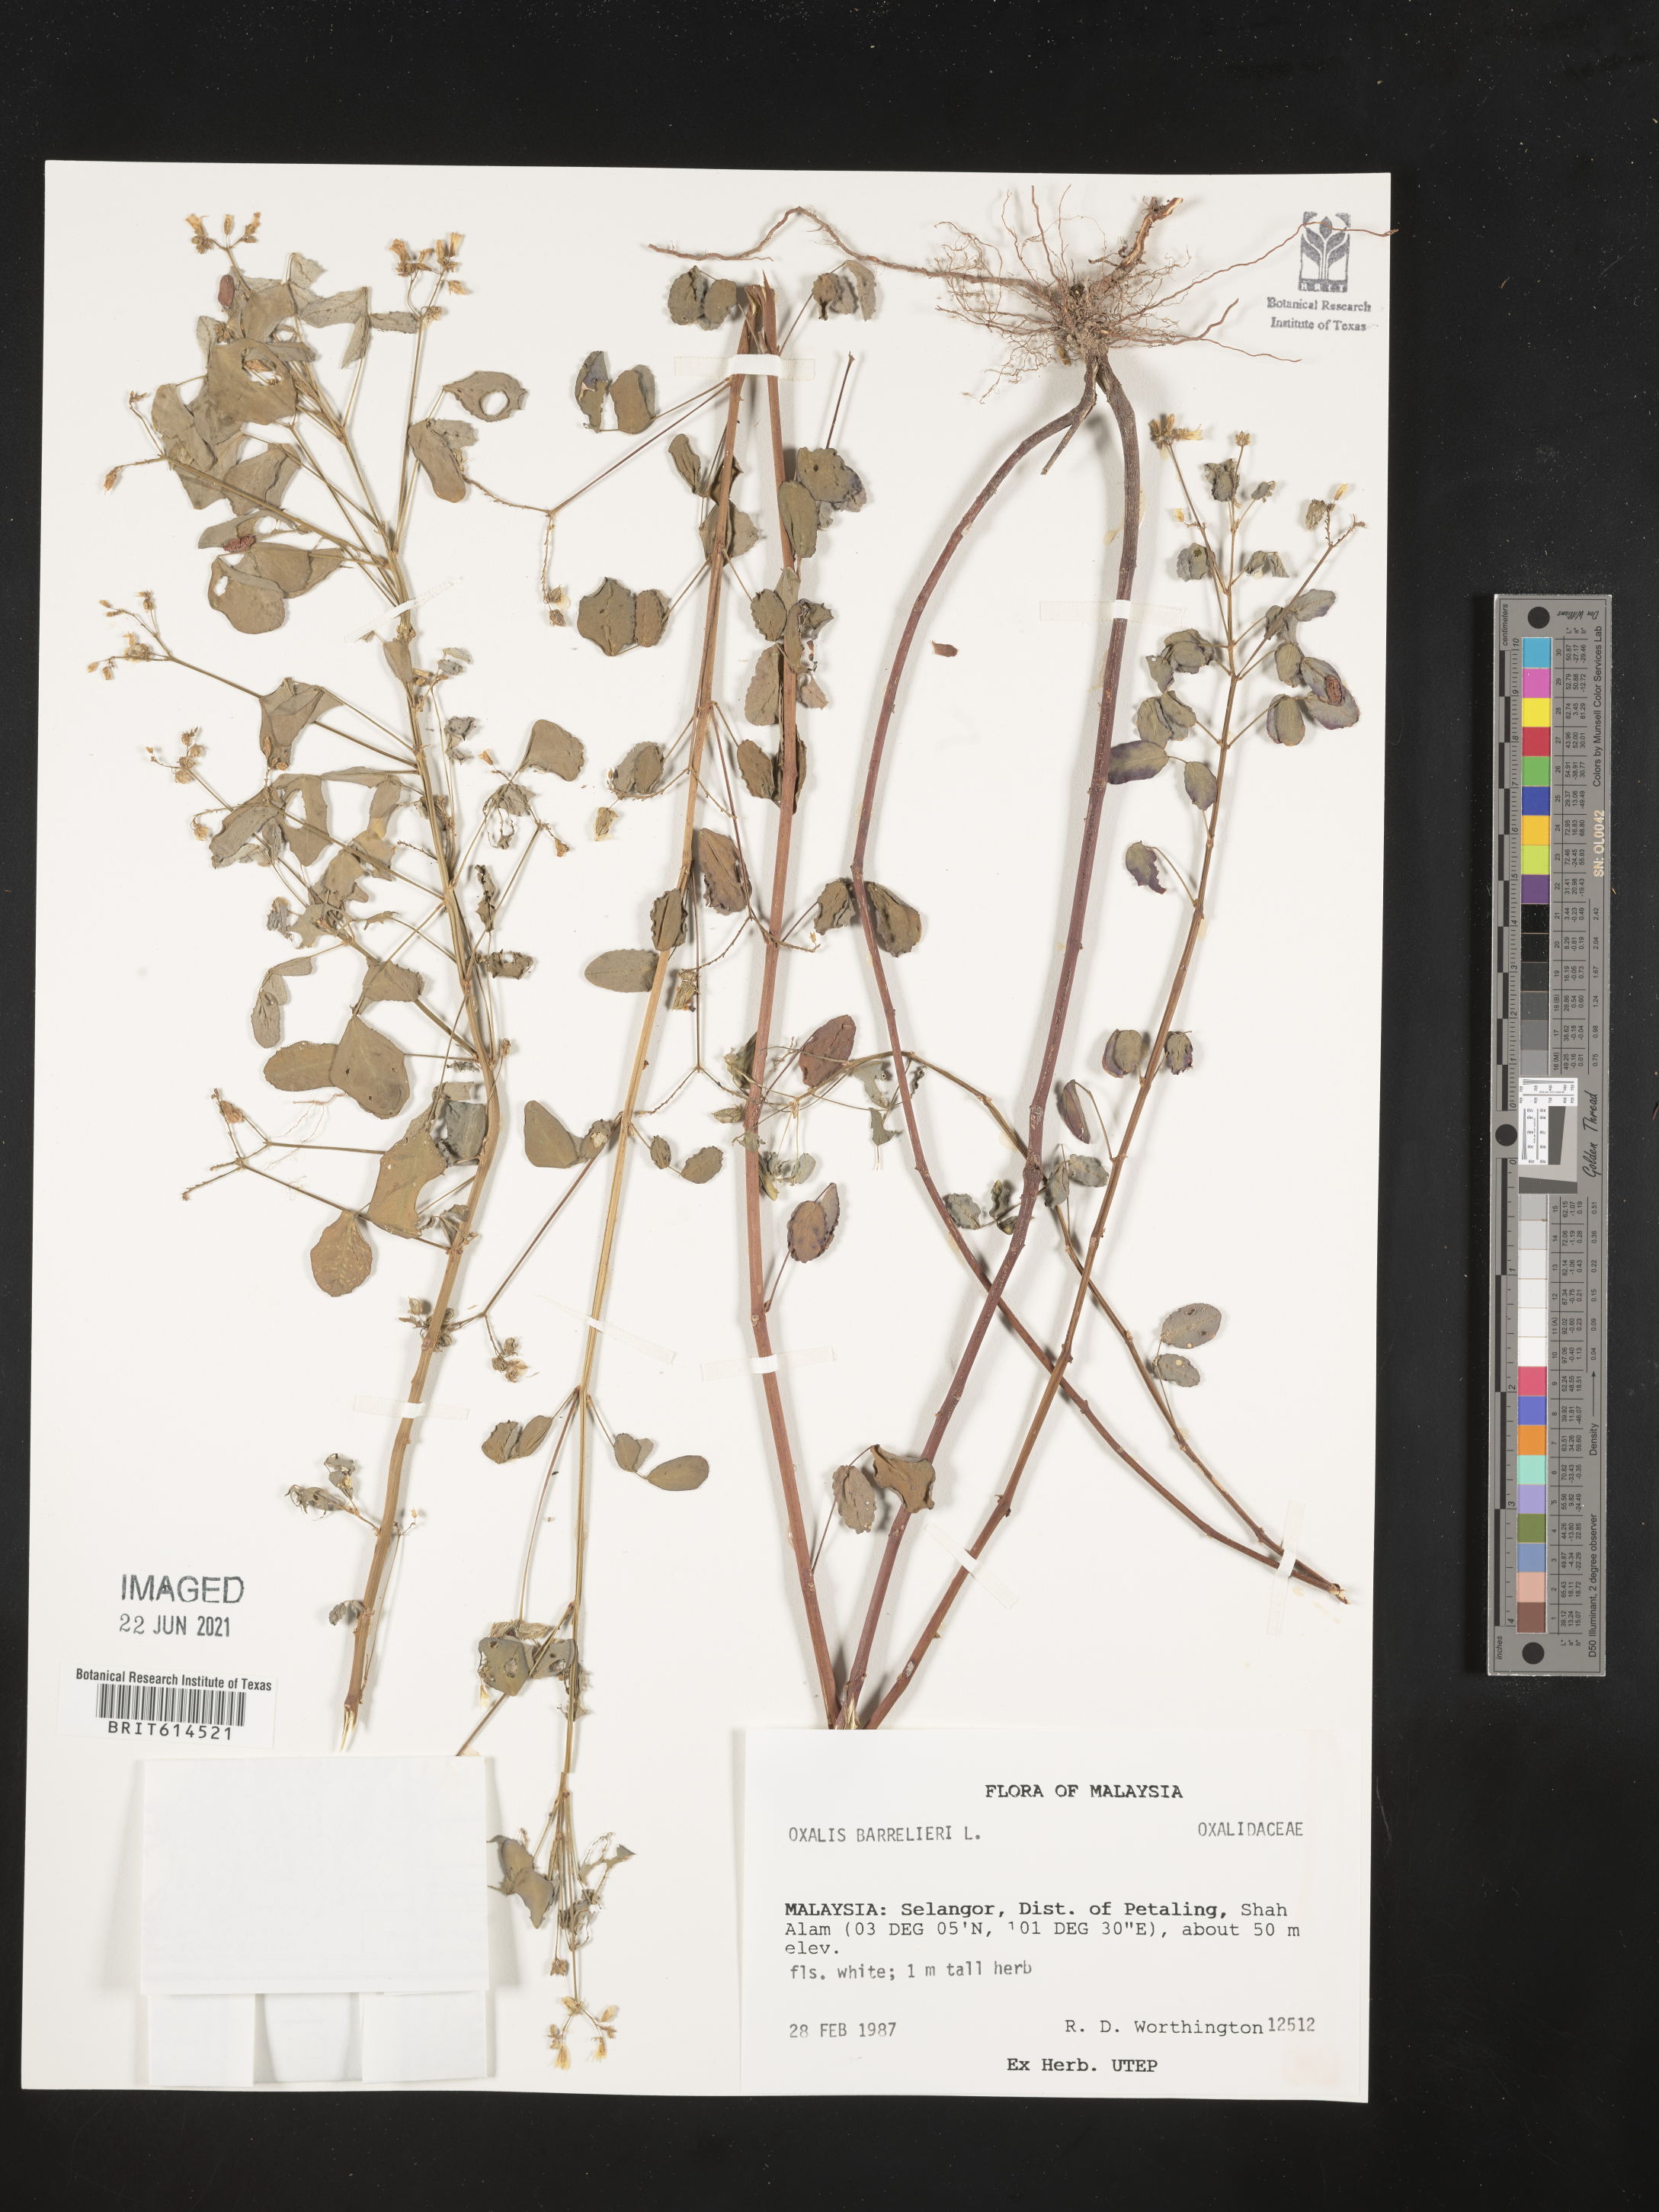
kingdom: Plantae
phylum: Tracheophyta
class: Magnoliopsida
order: Oxalidales
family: Oxalidaceae
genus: Oxalis
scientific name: Oxalis sepium
